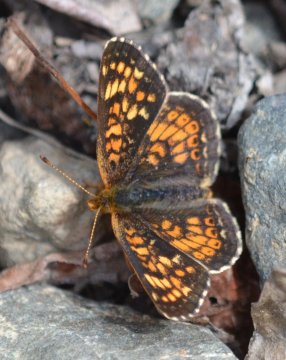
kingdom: Animalia
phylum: Arthropoda
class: Insecta
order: Lepidoptera
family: Nymphalidae
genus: Phyciodes
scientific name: Phyciodes tharos
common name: Field Crescent
